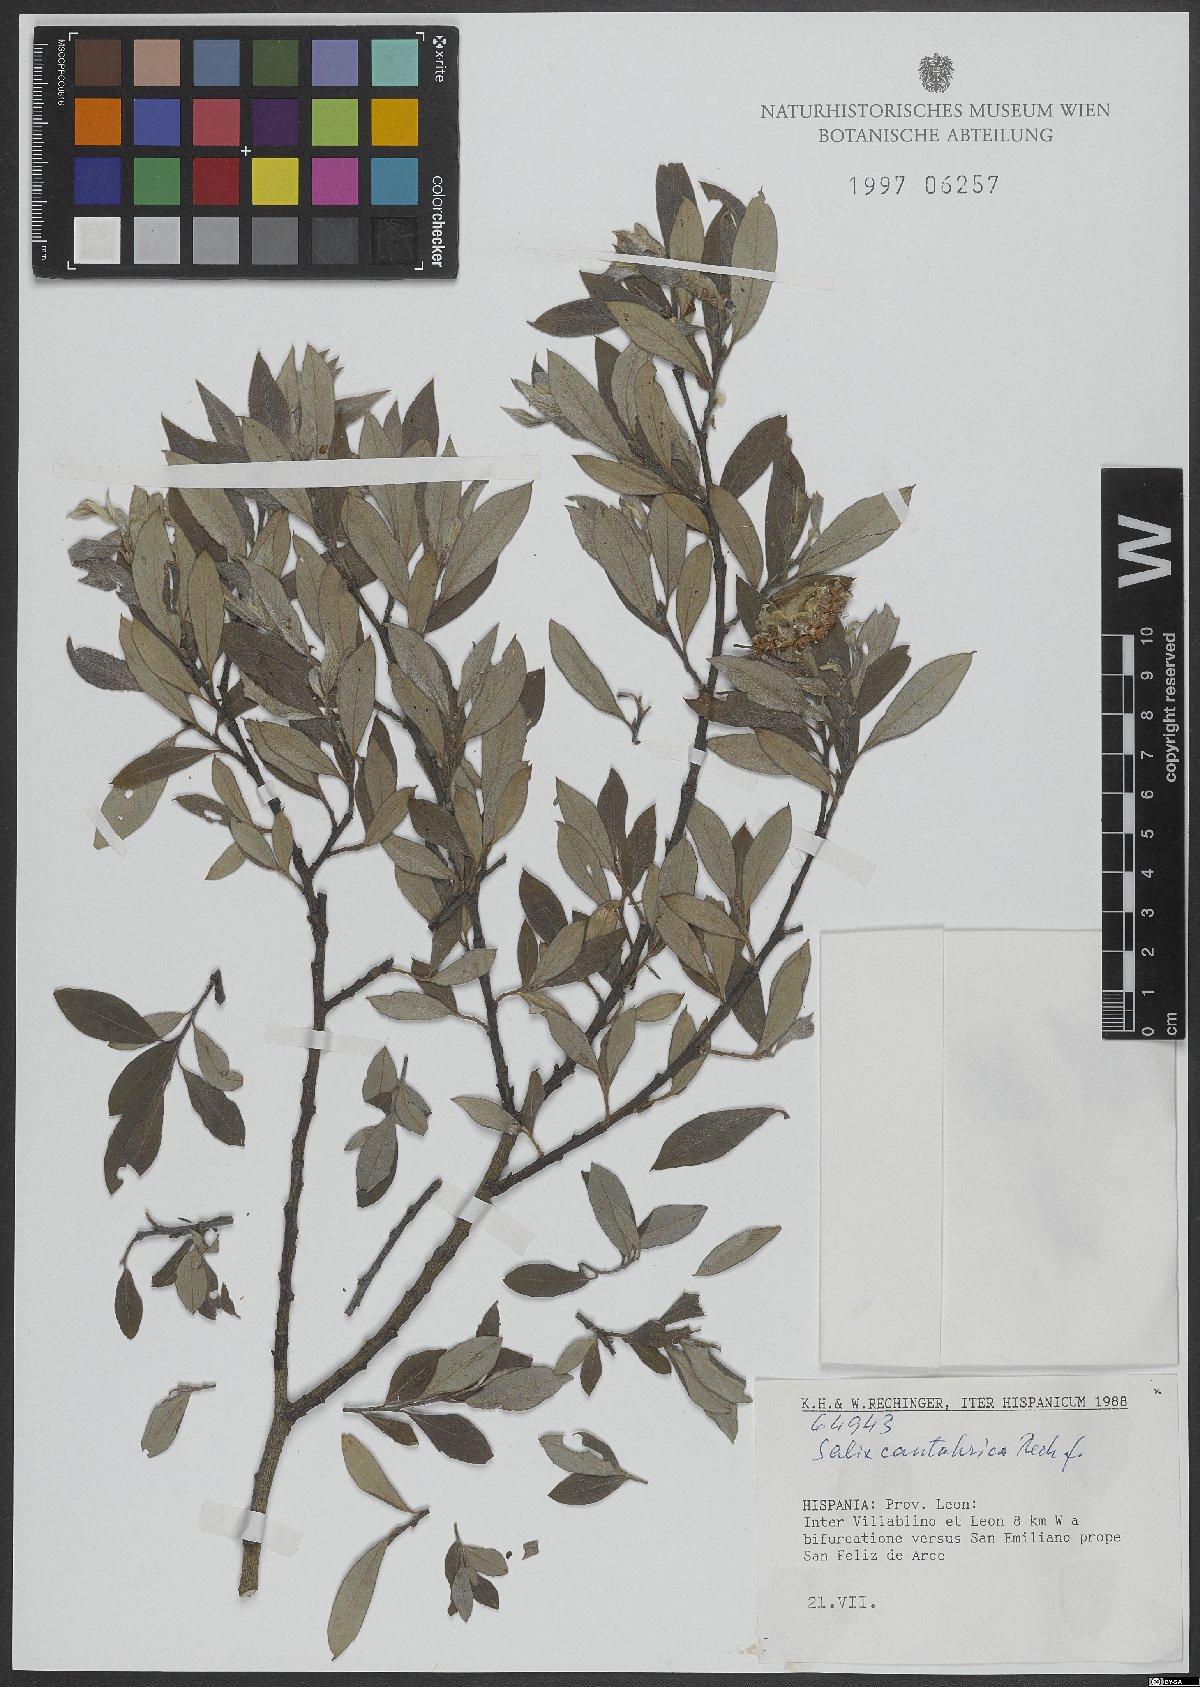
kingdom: Plantae
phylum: Tracheophyta
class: Magnoliopsida
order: Malpighiales
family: Salicaceae
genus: Salix
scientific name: Salix cantabrica
